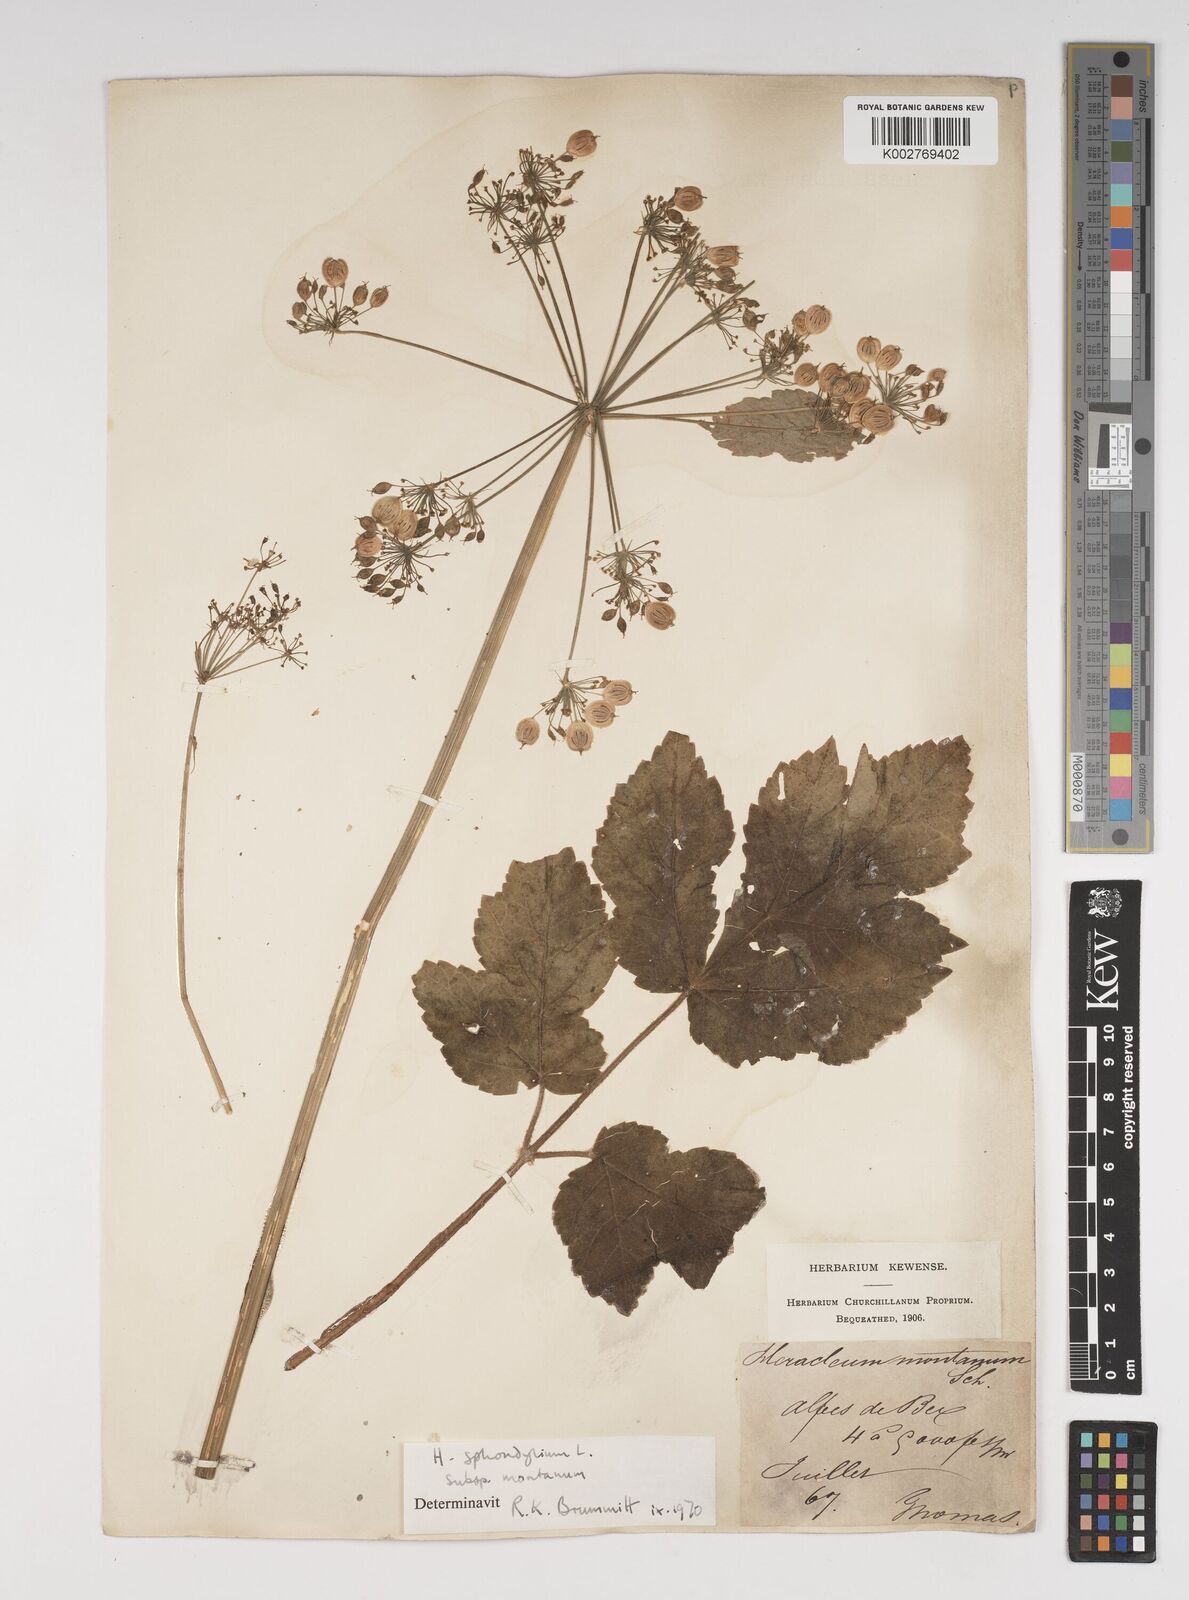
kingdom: Plantae
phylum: Tracheophyta
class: Magnoliopsida
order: Apiales
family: Apiaceae
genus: Heracleum
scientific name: Heracleum sphondylium
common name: Hogweed
